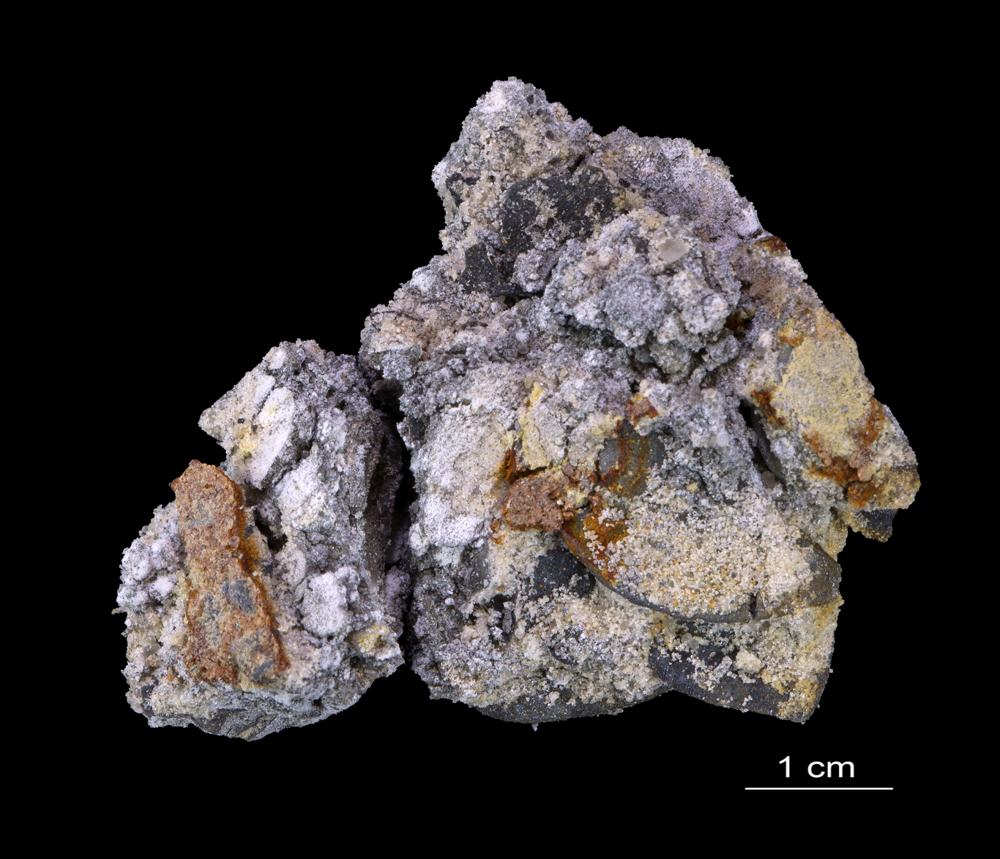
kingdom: Animalia
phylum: Brachiopoda
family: Paterinidae
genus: Mickwitzia
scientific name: Mickwitzia
